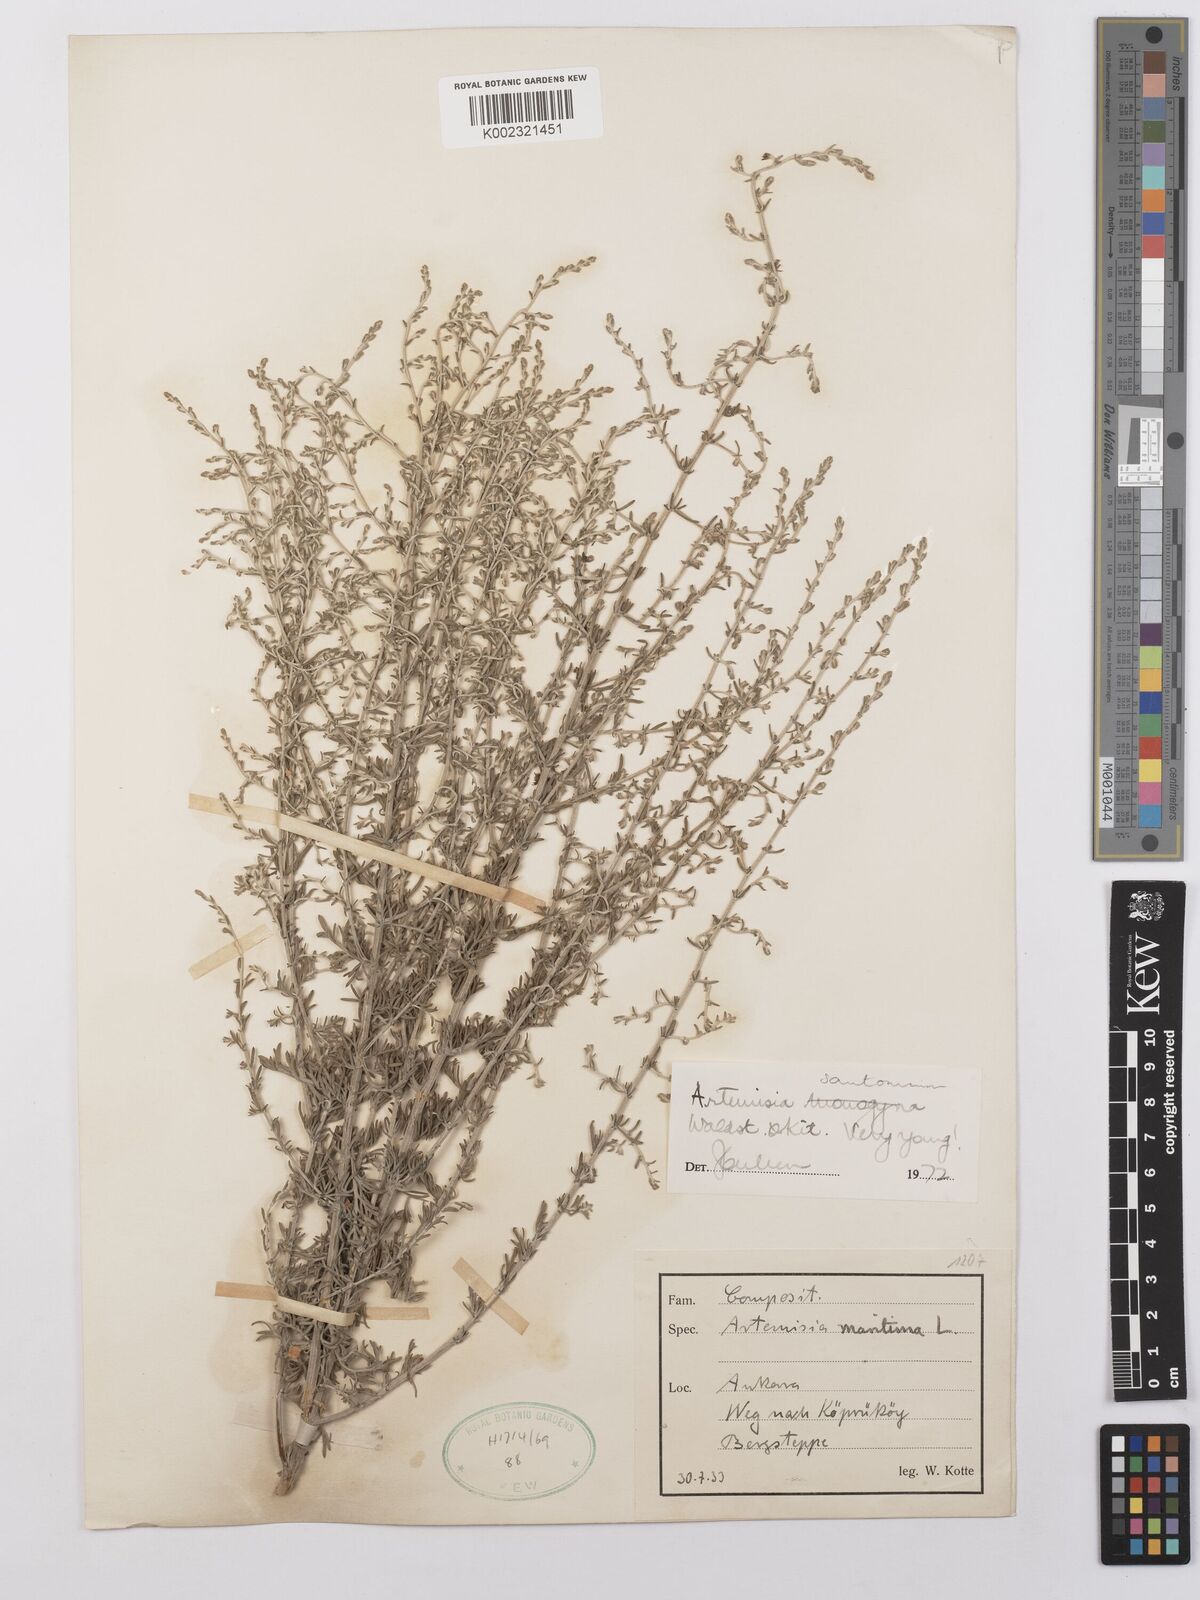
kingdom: Plantae
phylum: Tracheophyta
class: Magnoliopsida
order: Asterales
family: Asteraceae
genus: Artemisia
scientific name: Artemisia santonicum
